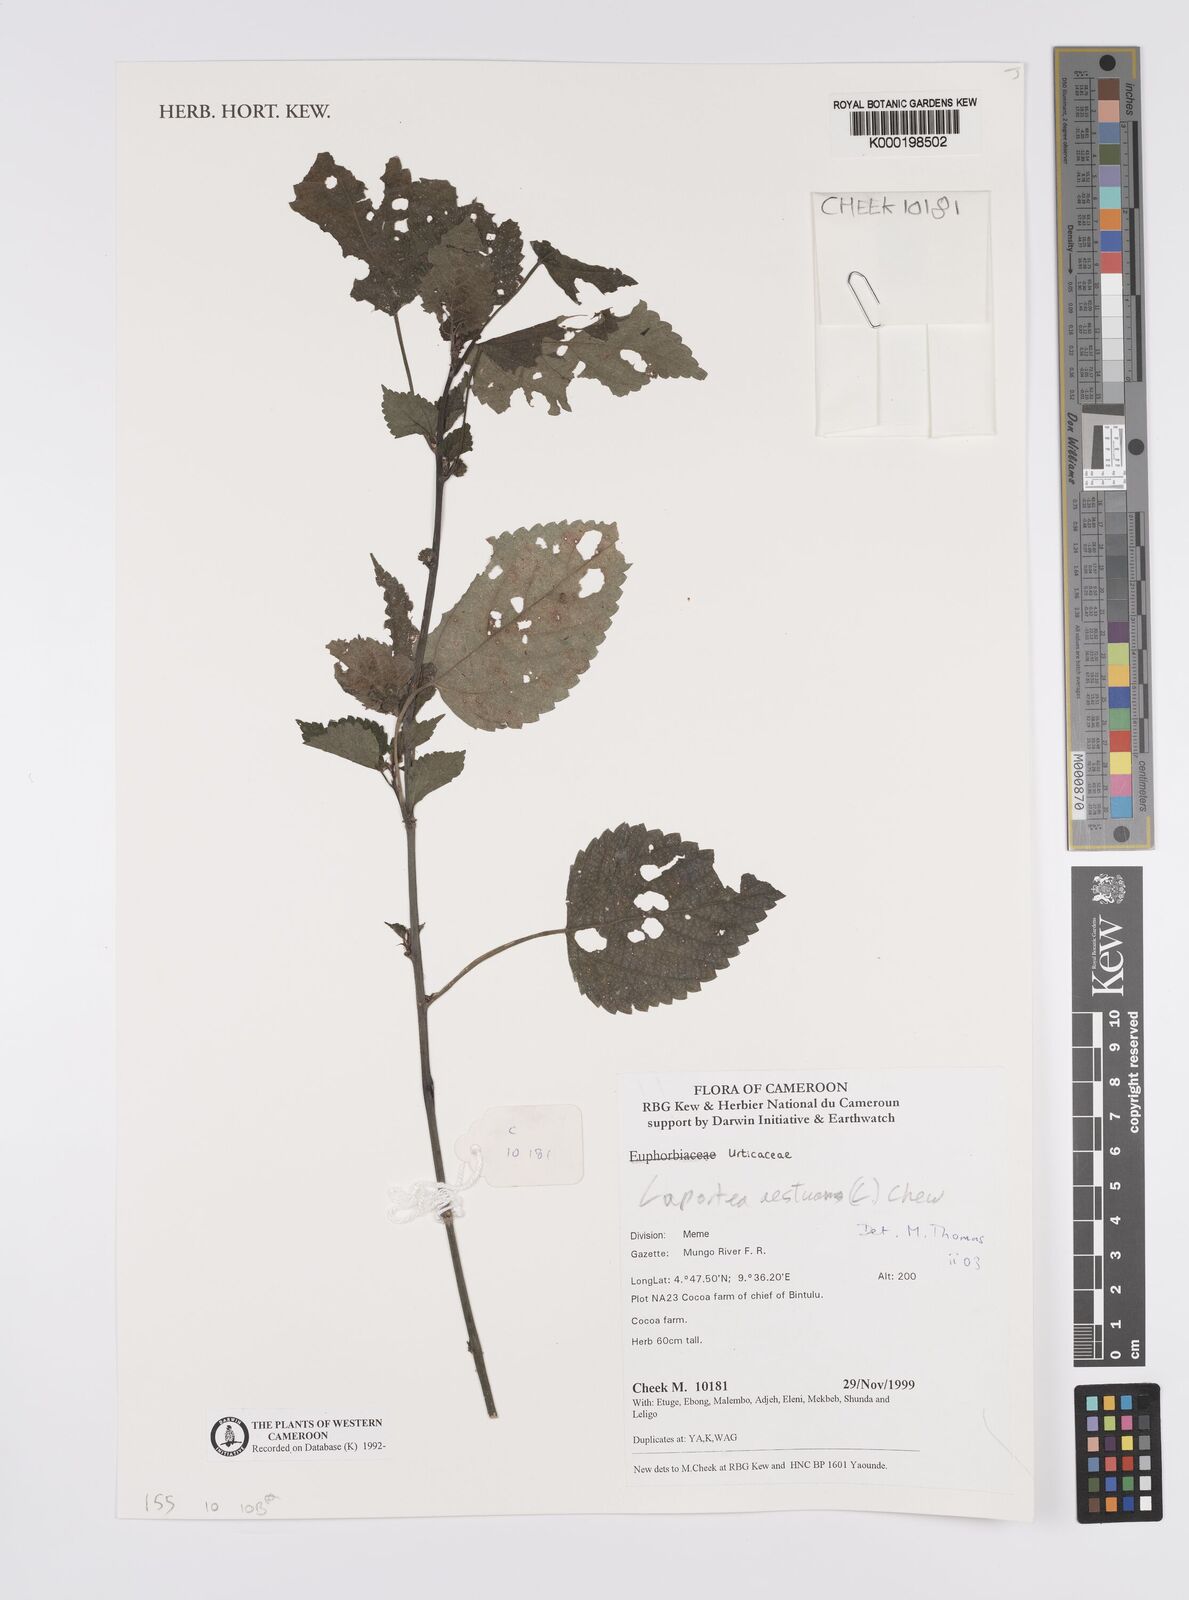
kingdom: Plantae
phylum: Tracheophyta
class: Magnoliopsida
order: Rosales
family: Urticaceae
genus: Laportea
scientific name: Laportea aestuans
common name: West indian woodnettle
